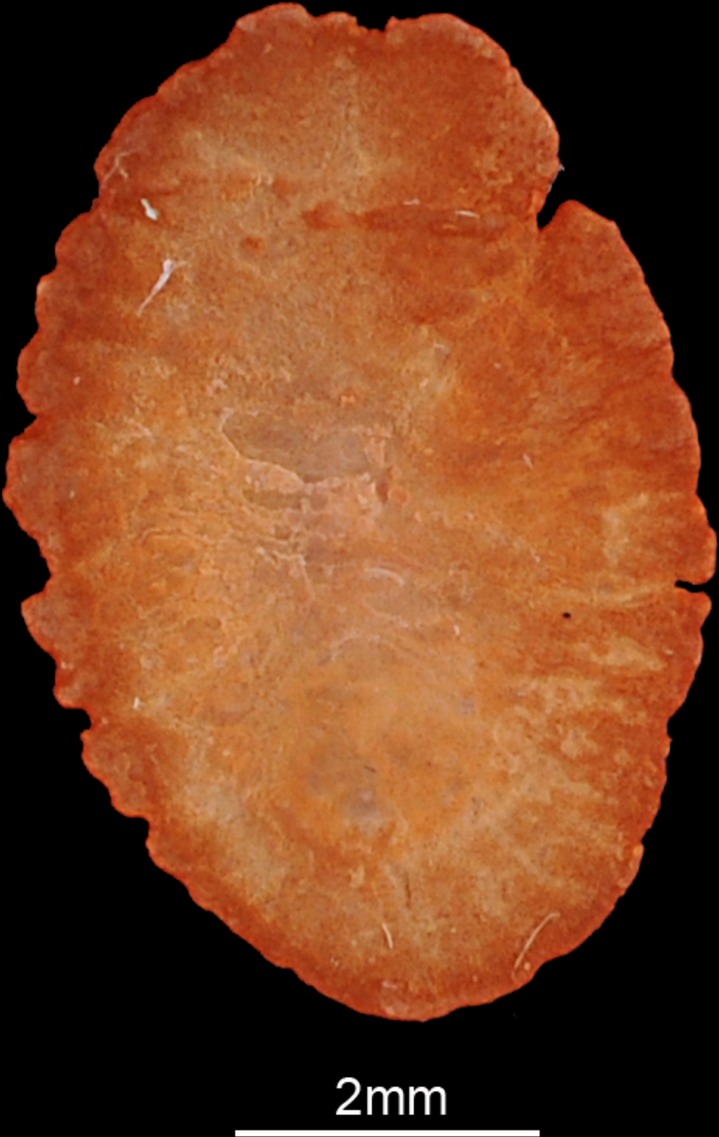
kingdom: Animalia
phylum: Chordata
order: Perciformes
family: Cichlidae
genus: Sarotherodon
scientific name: Sarotherodon galilaeus
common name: Mango tilapia
